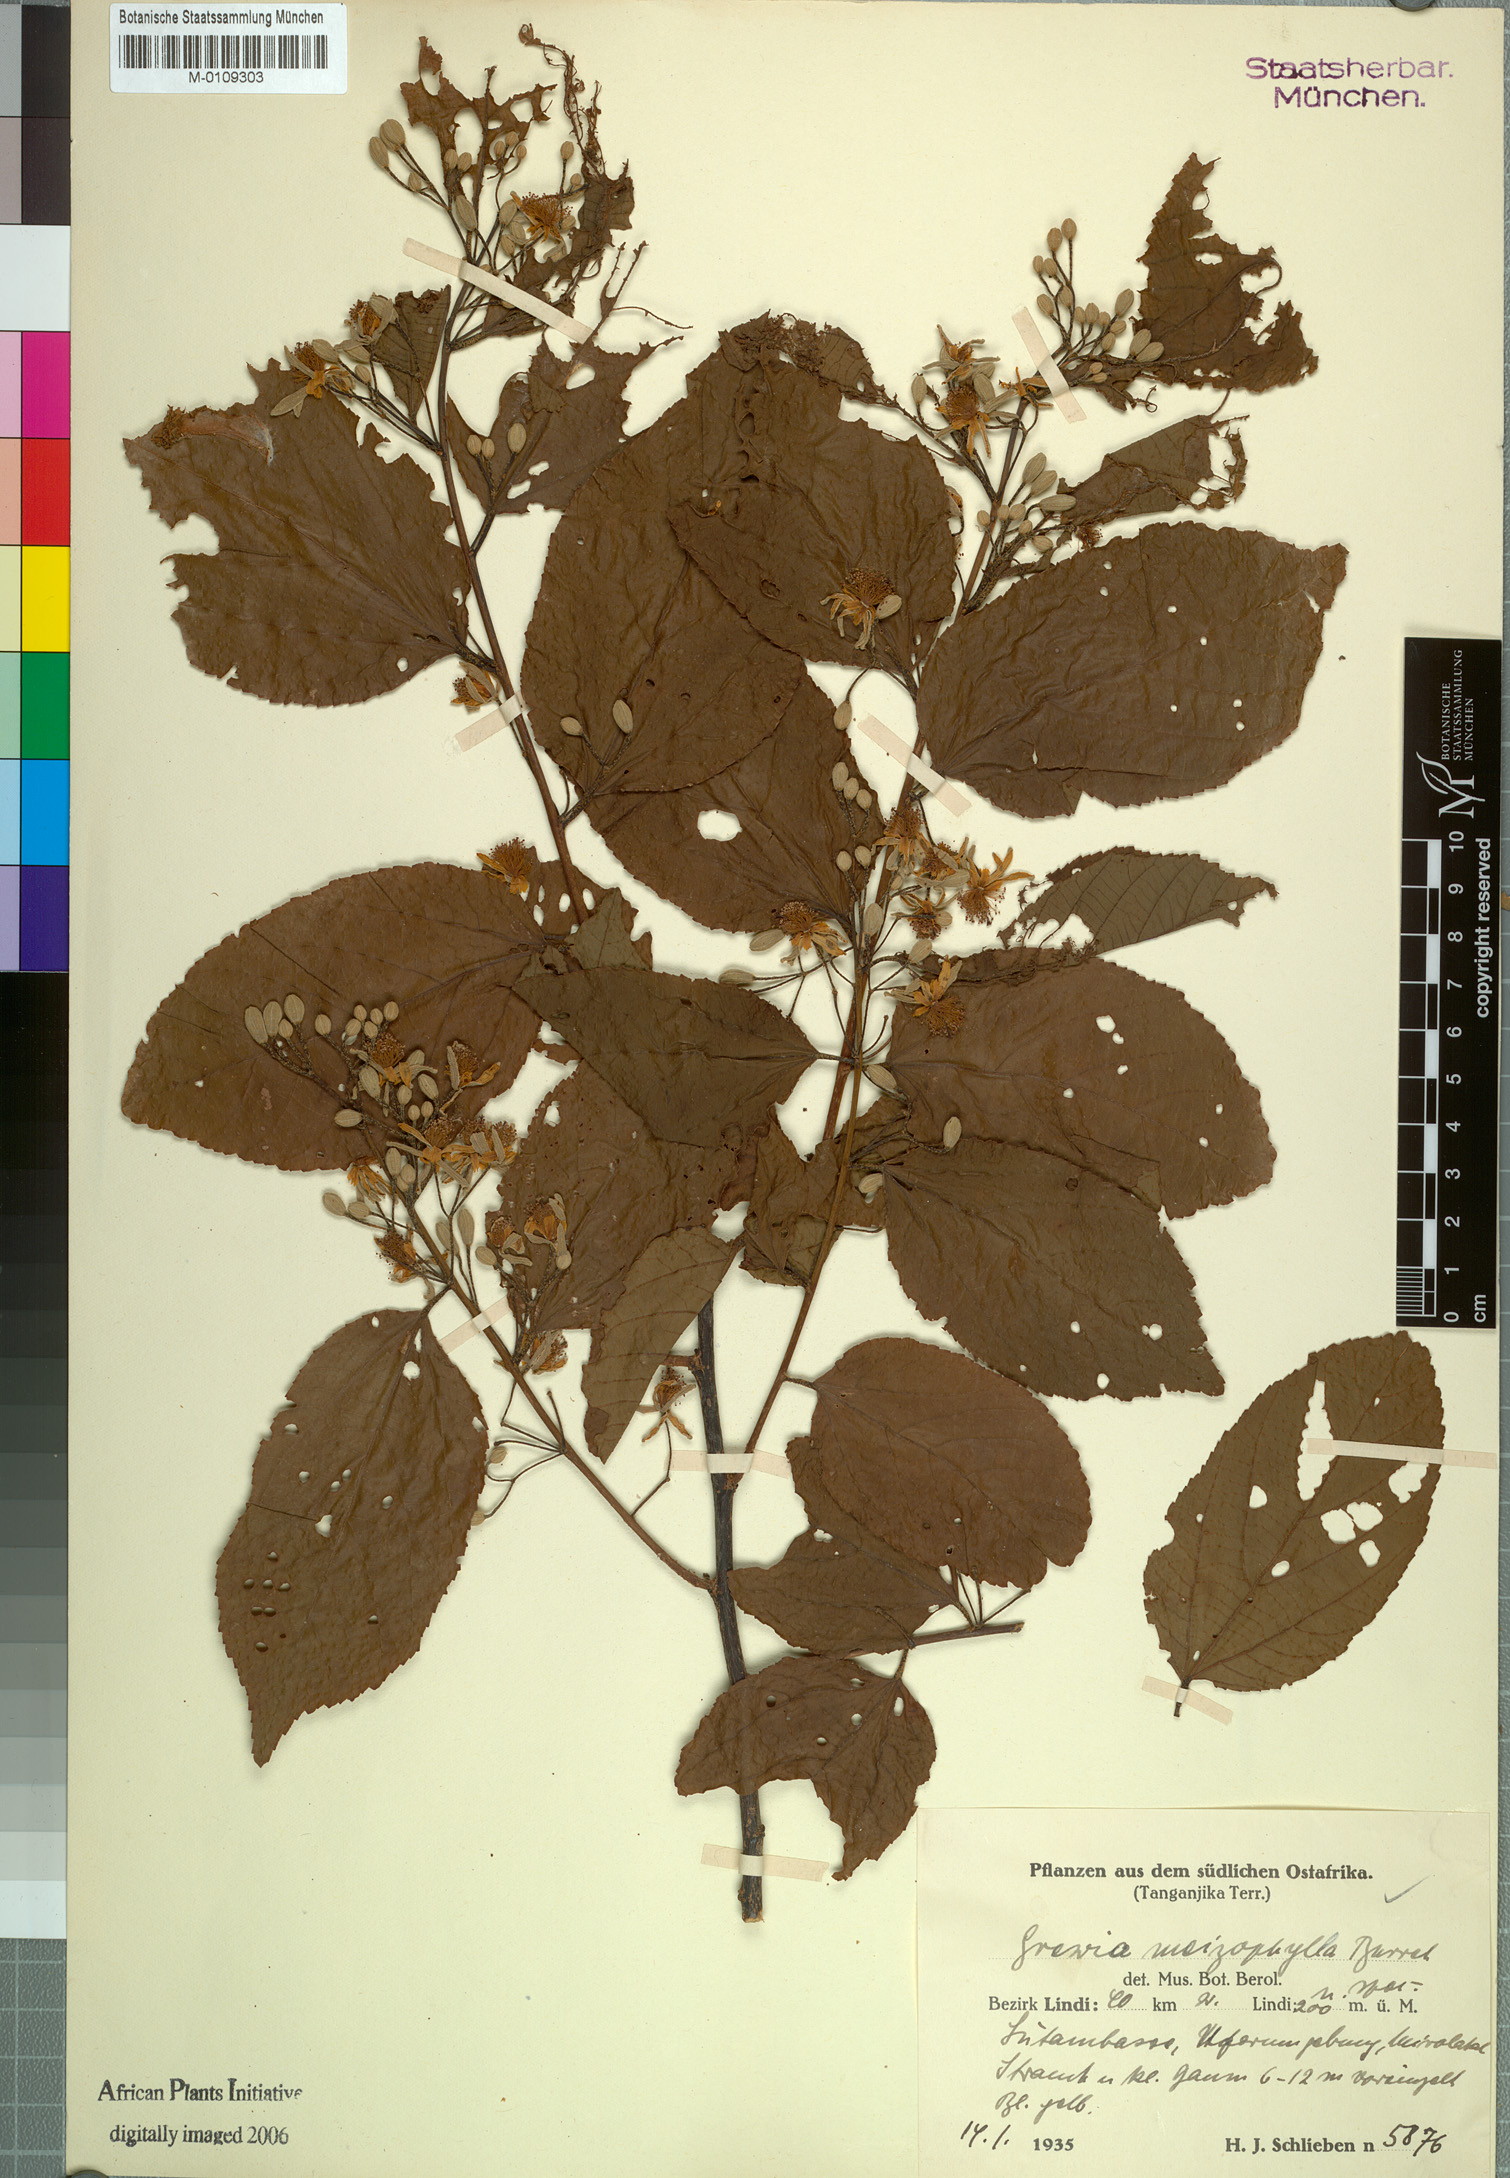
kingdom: Plantae
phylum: Tracheophyta
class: Magnoliopsida
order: Malvales
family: Malvaceae
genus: Grewia
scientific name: Grewia meizophylla
